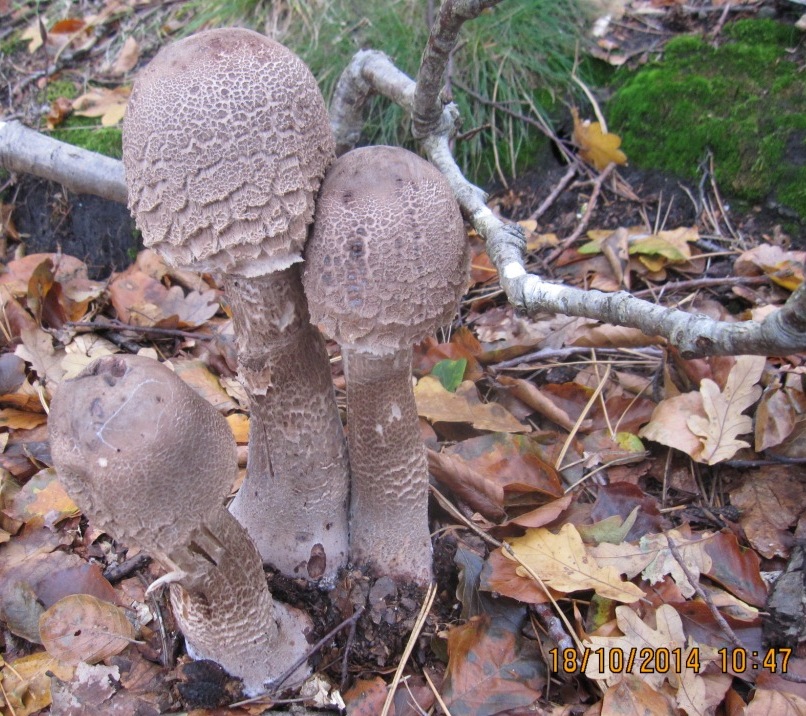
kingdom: Fungi
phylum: Basidiomycota
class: Agaricomycetes
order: Agaricales
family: Agaricaceae
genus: Macrolepiota
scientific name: Macrolepiota fuliginosa
